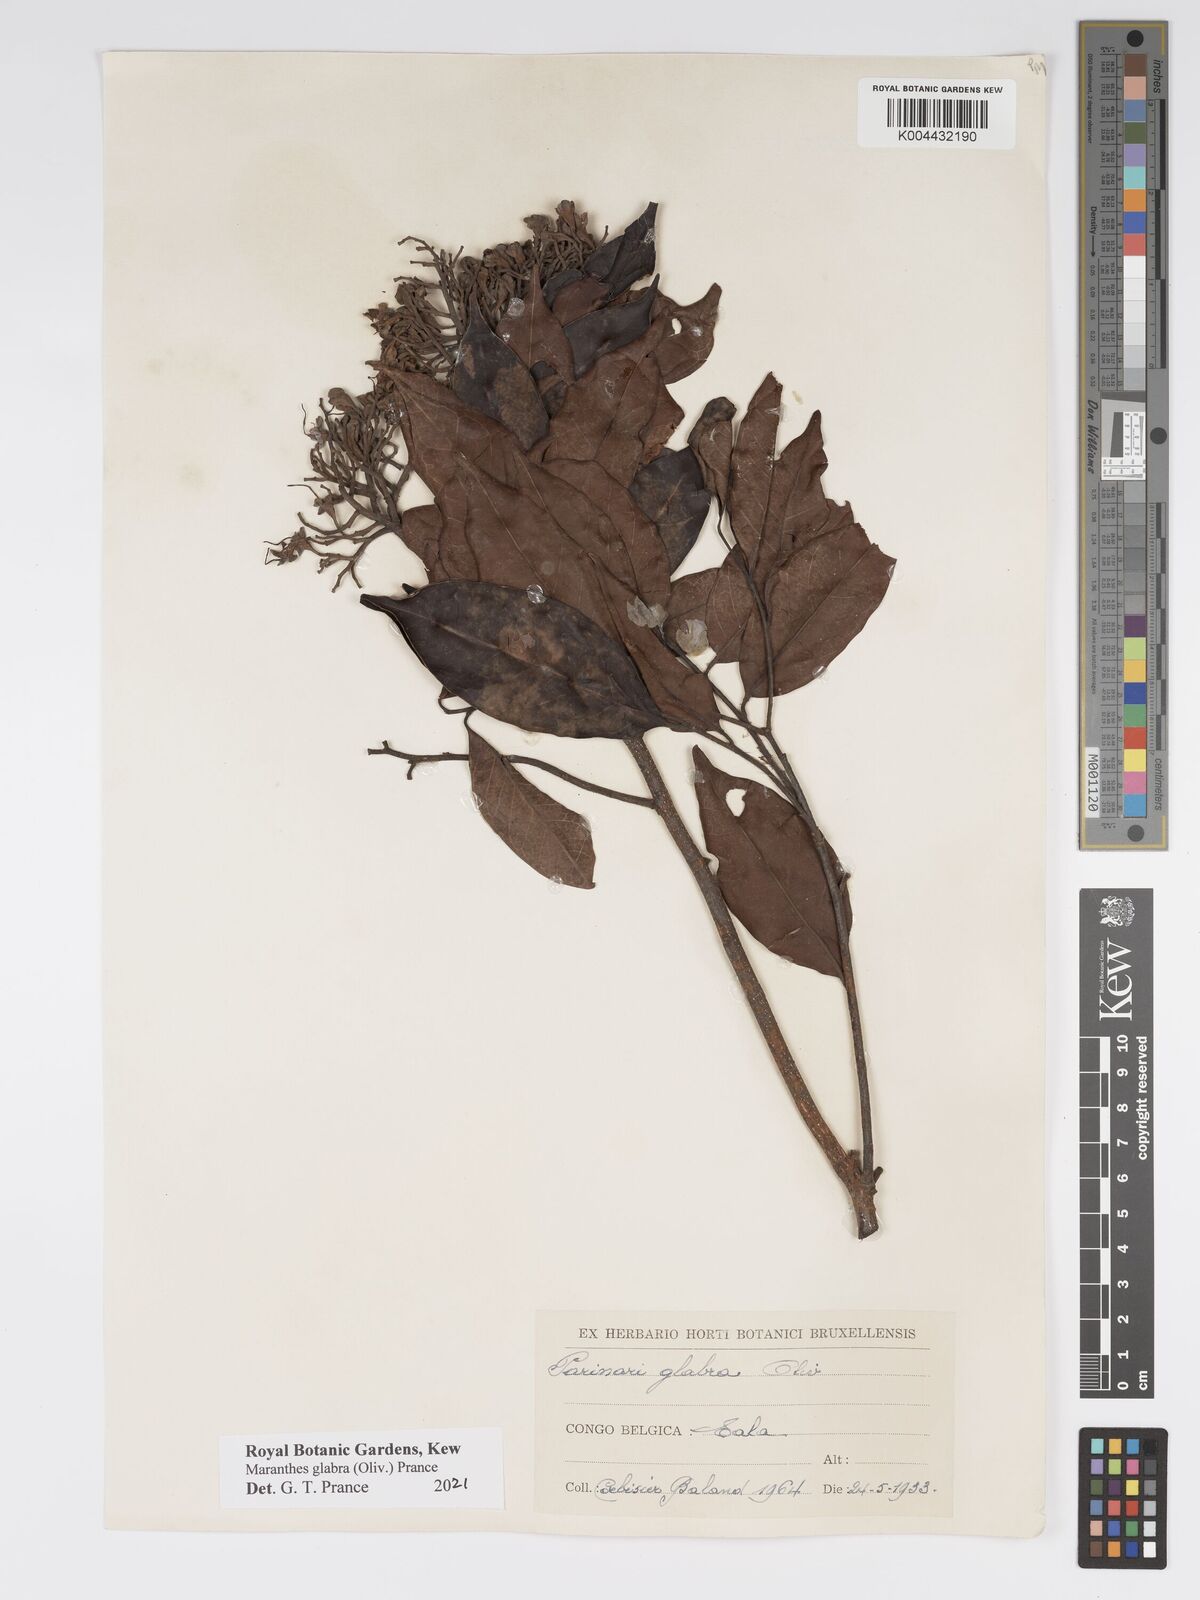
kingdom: Plantae
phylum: Tracheophyta
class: Magnoliopsida
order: Malpighiales
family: Chrysobalanaceae
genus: Maranthes
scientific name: Maranthes glabra
